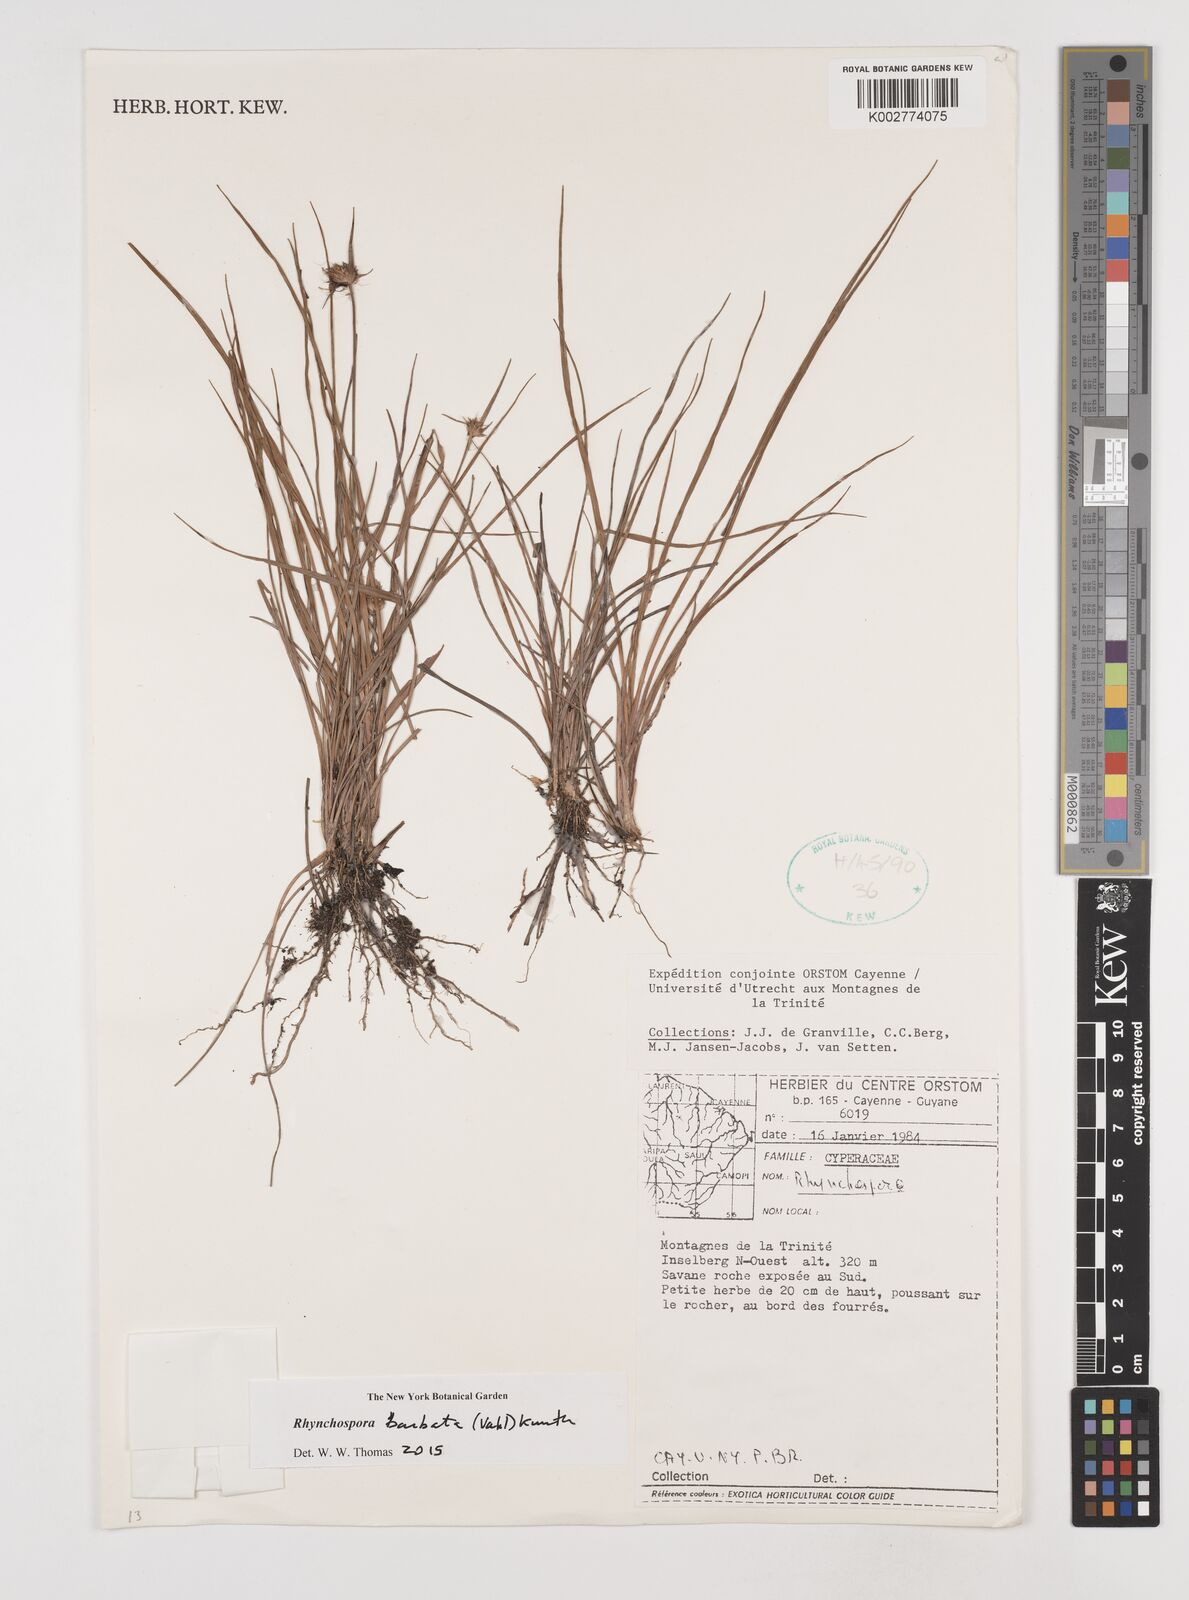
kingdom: Plantae
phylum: Tracheophyta
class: Liliopsida
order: Poales
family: Cyperaceae
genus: Rhynchospora
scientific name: Rhynchospora barbata
